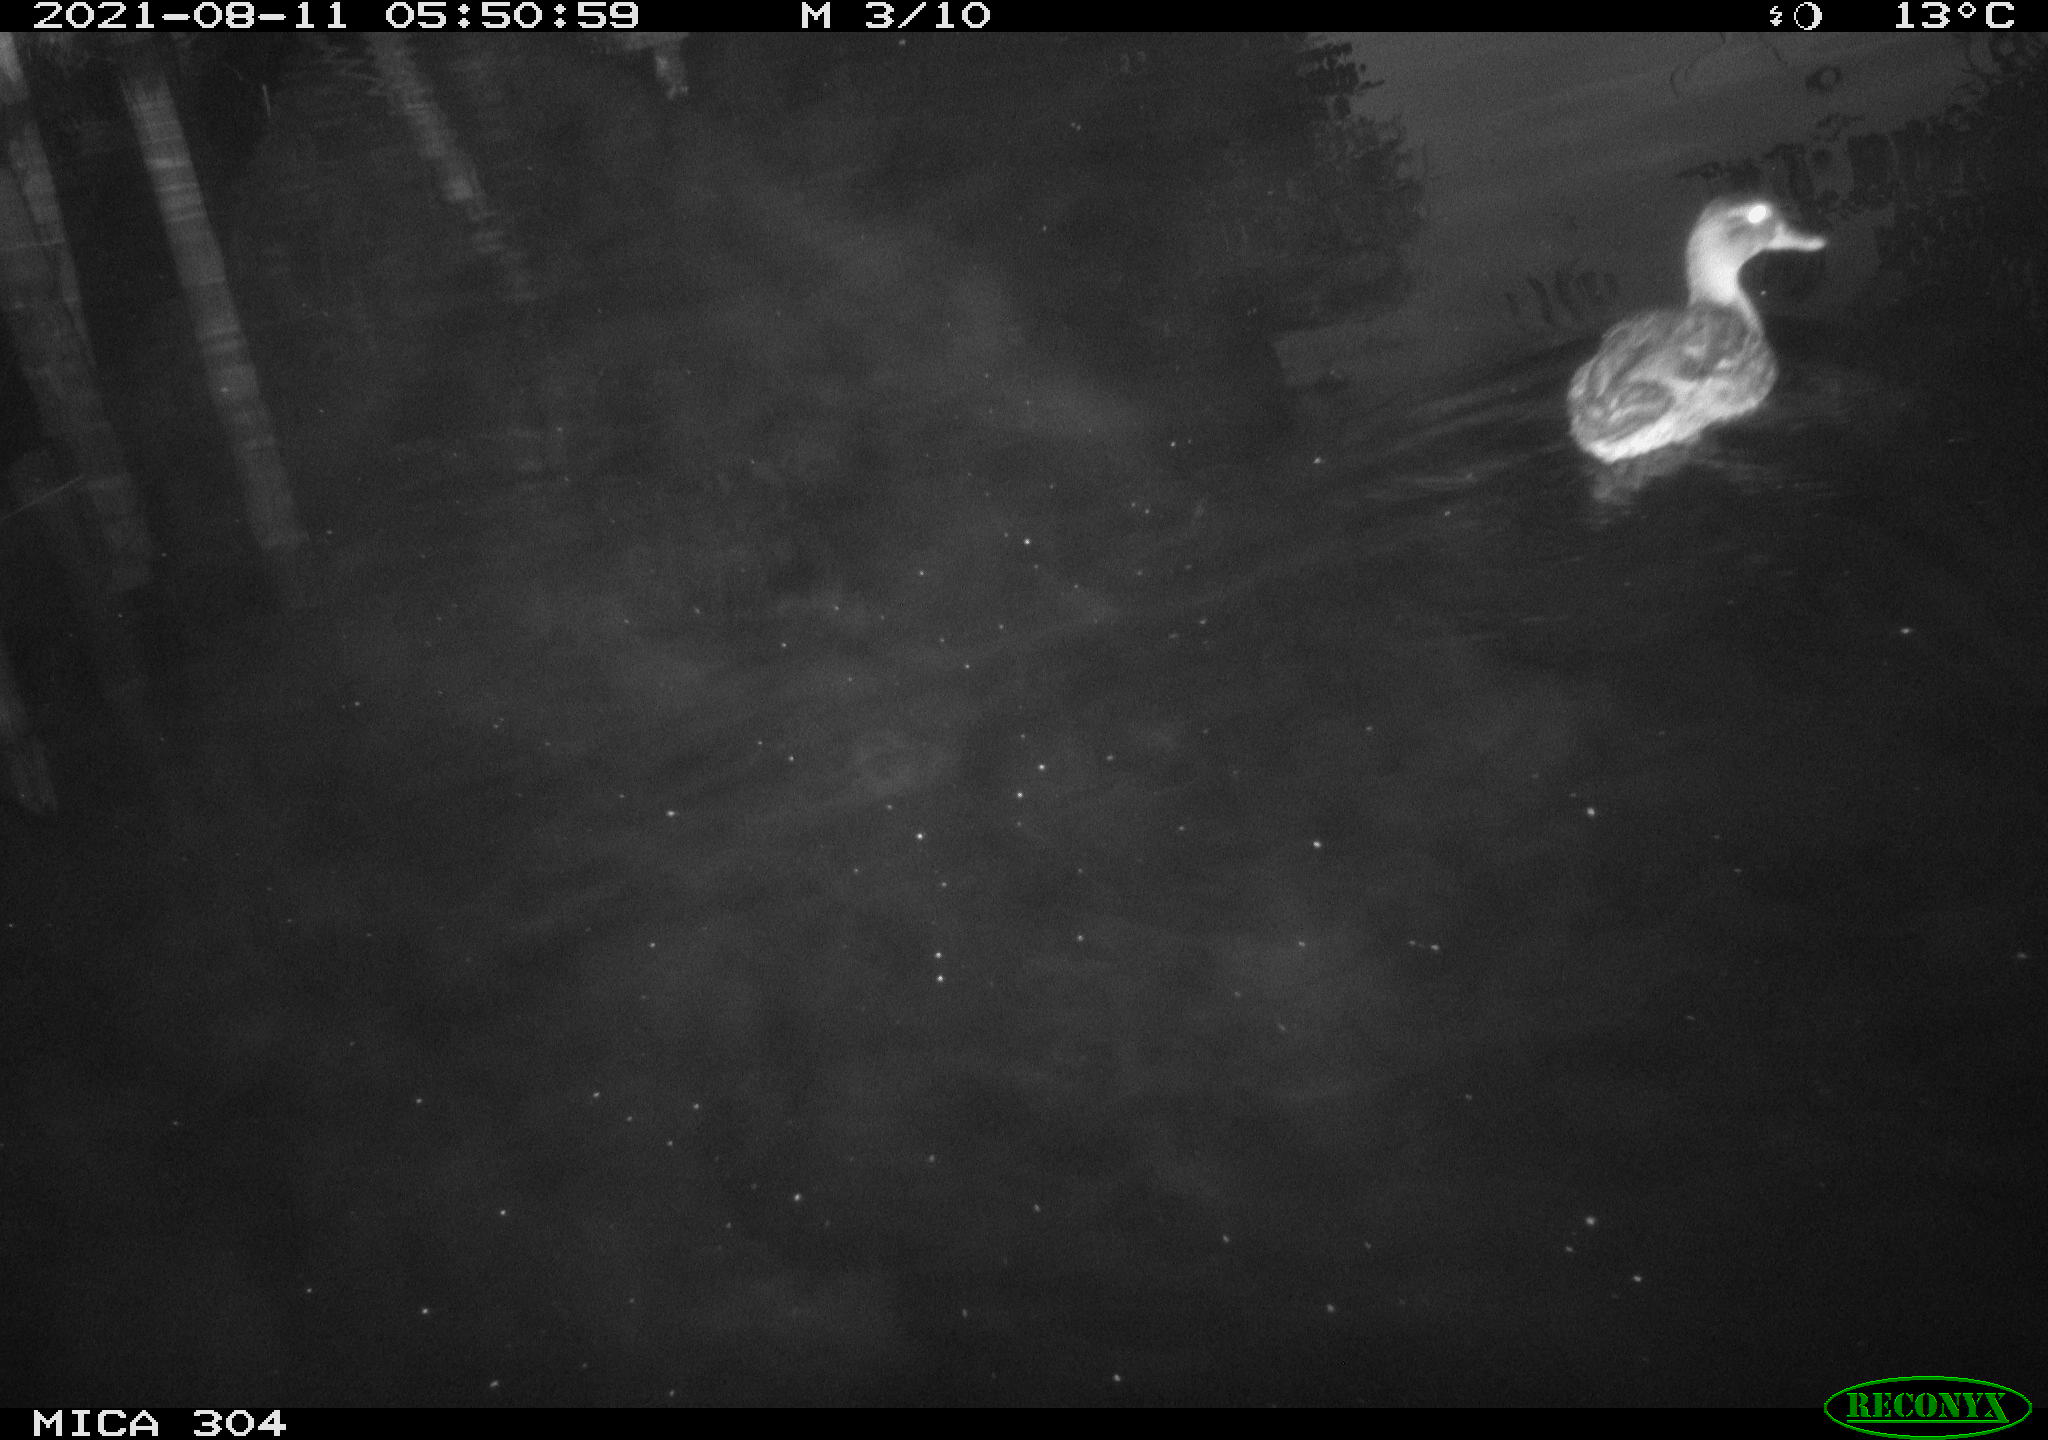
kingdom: Animalia
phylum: Chordata
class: Aves
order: Anseriformes
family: Anatidae
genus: Anas
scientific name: Anas platyrhynchos
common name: Mallard
